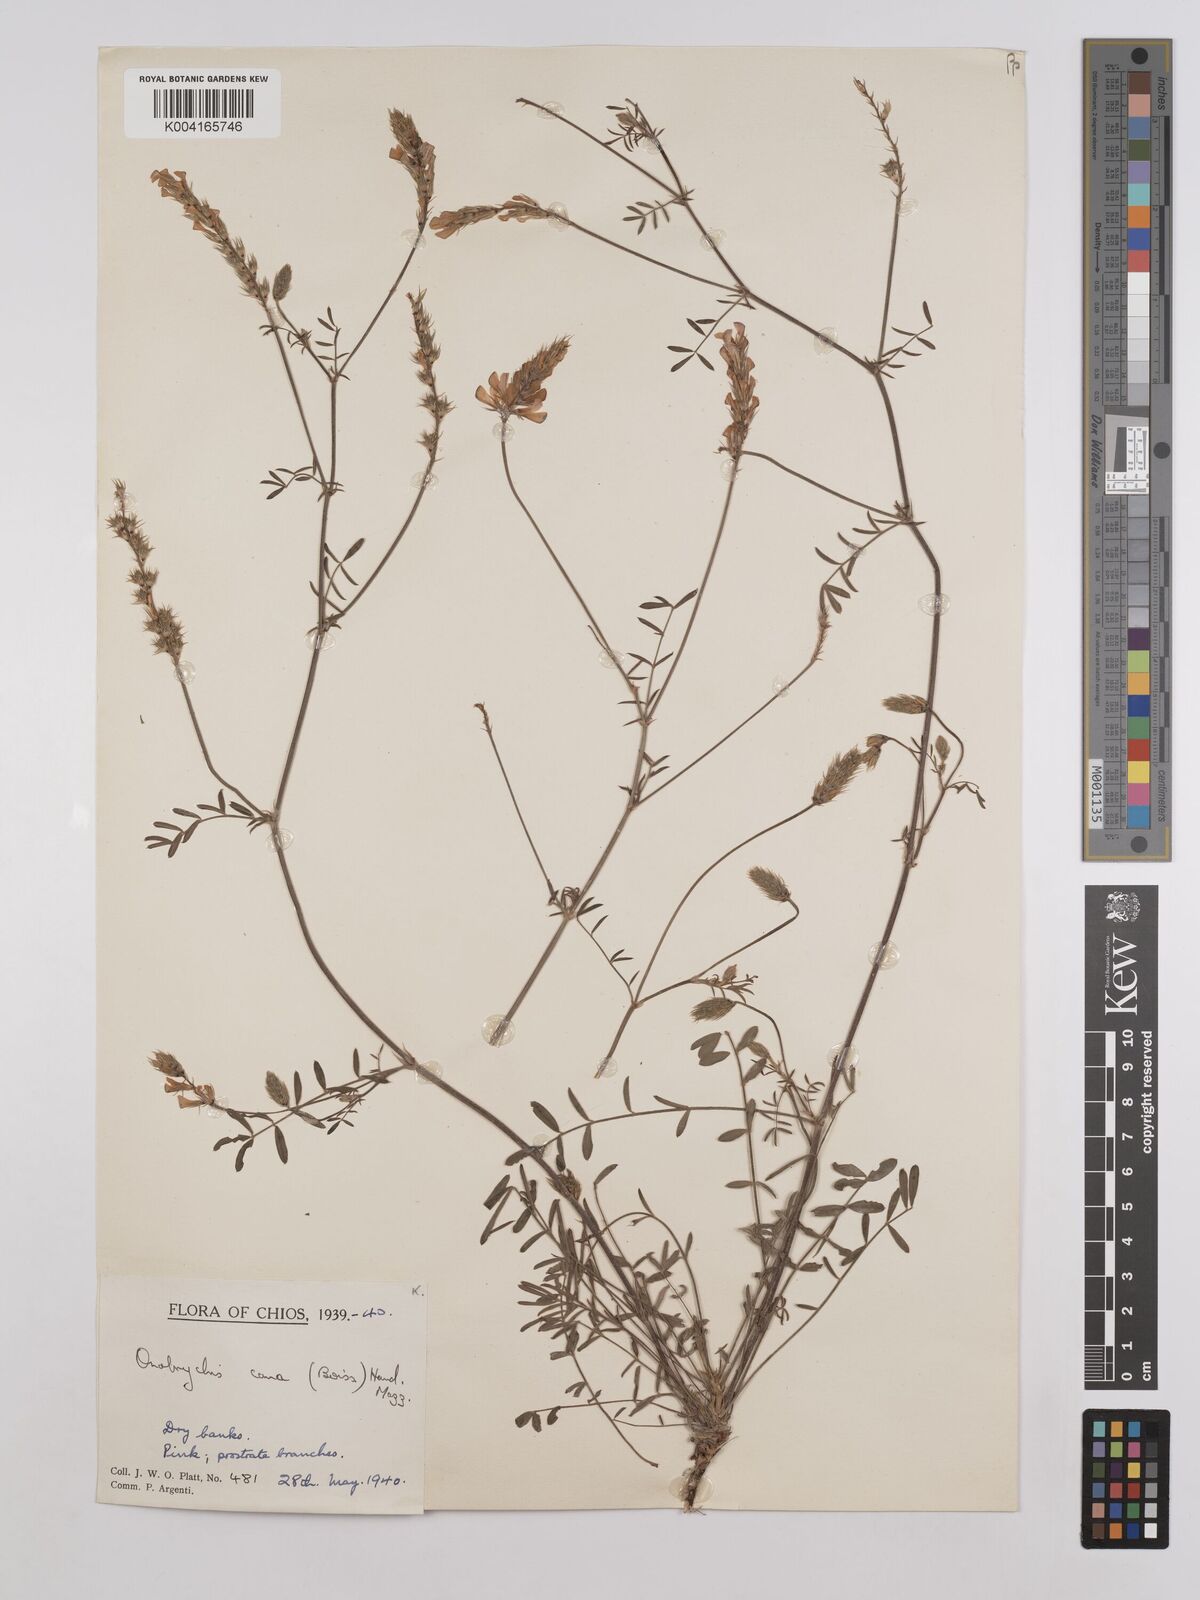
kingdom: Plantae
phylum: Tracheophyta
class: Magnoliopsida
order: Fabales
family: Fabaceae
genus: Onobrychis
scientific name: Onobrychis arenaria
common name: Sand esparcet
